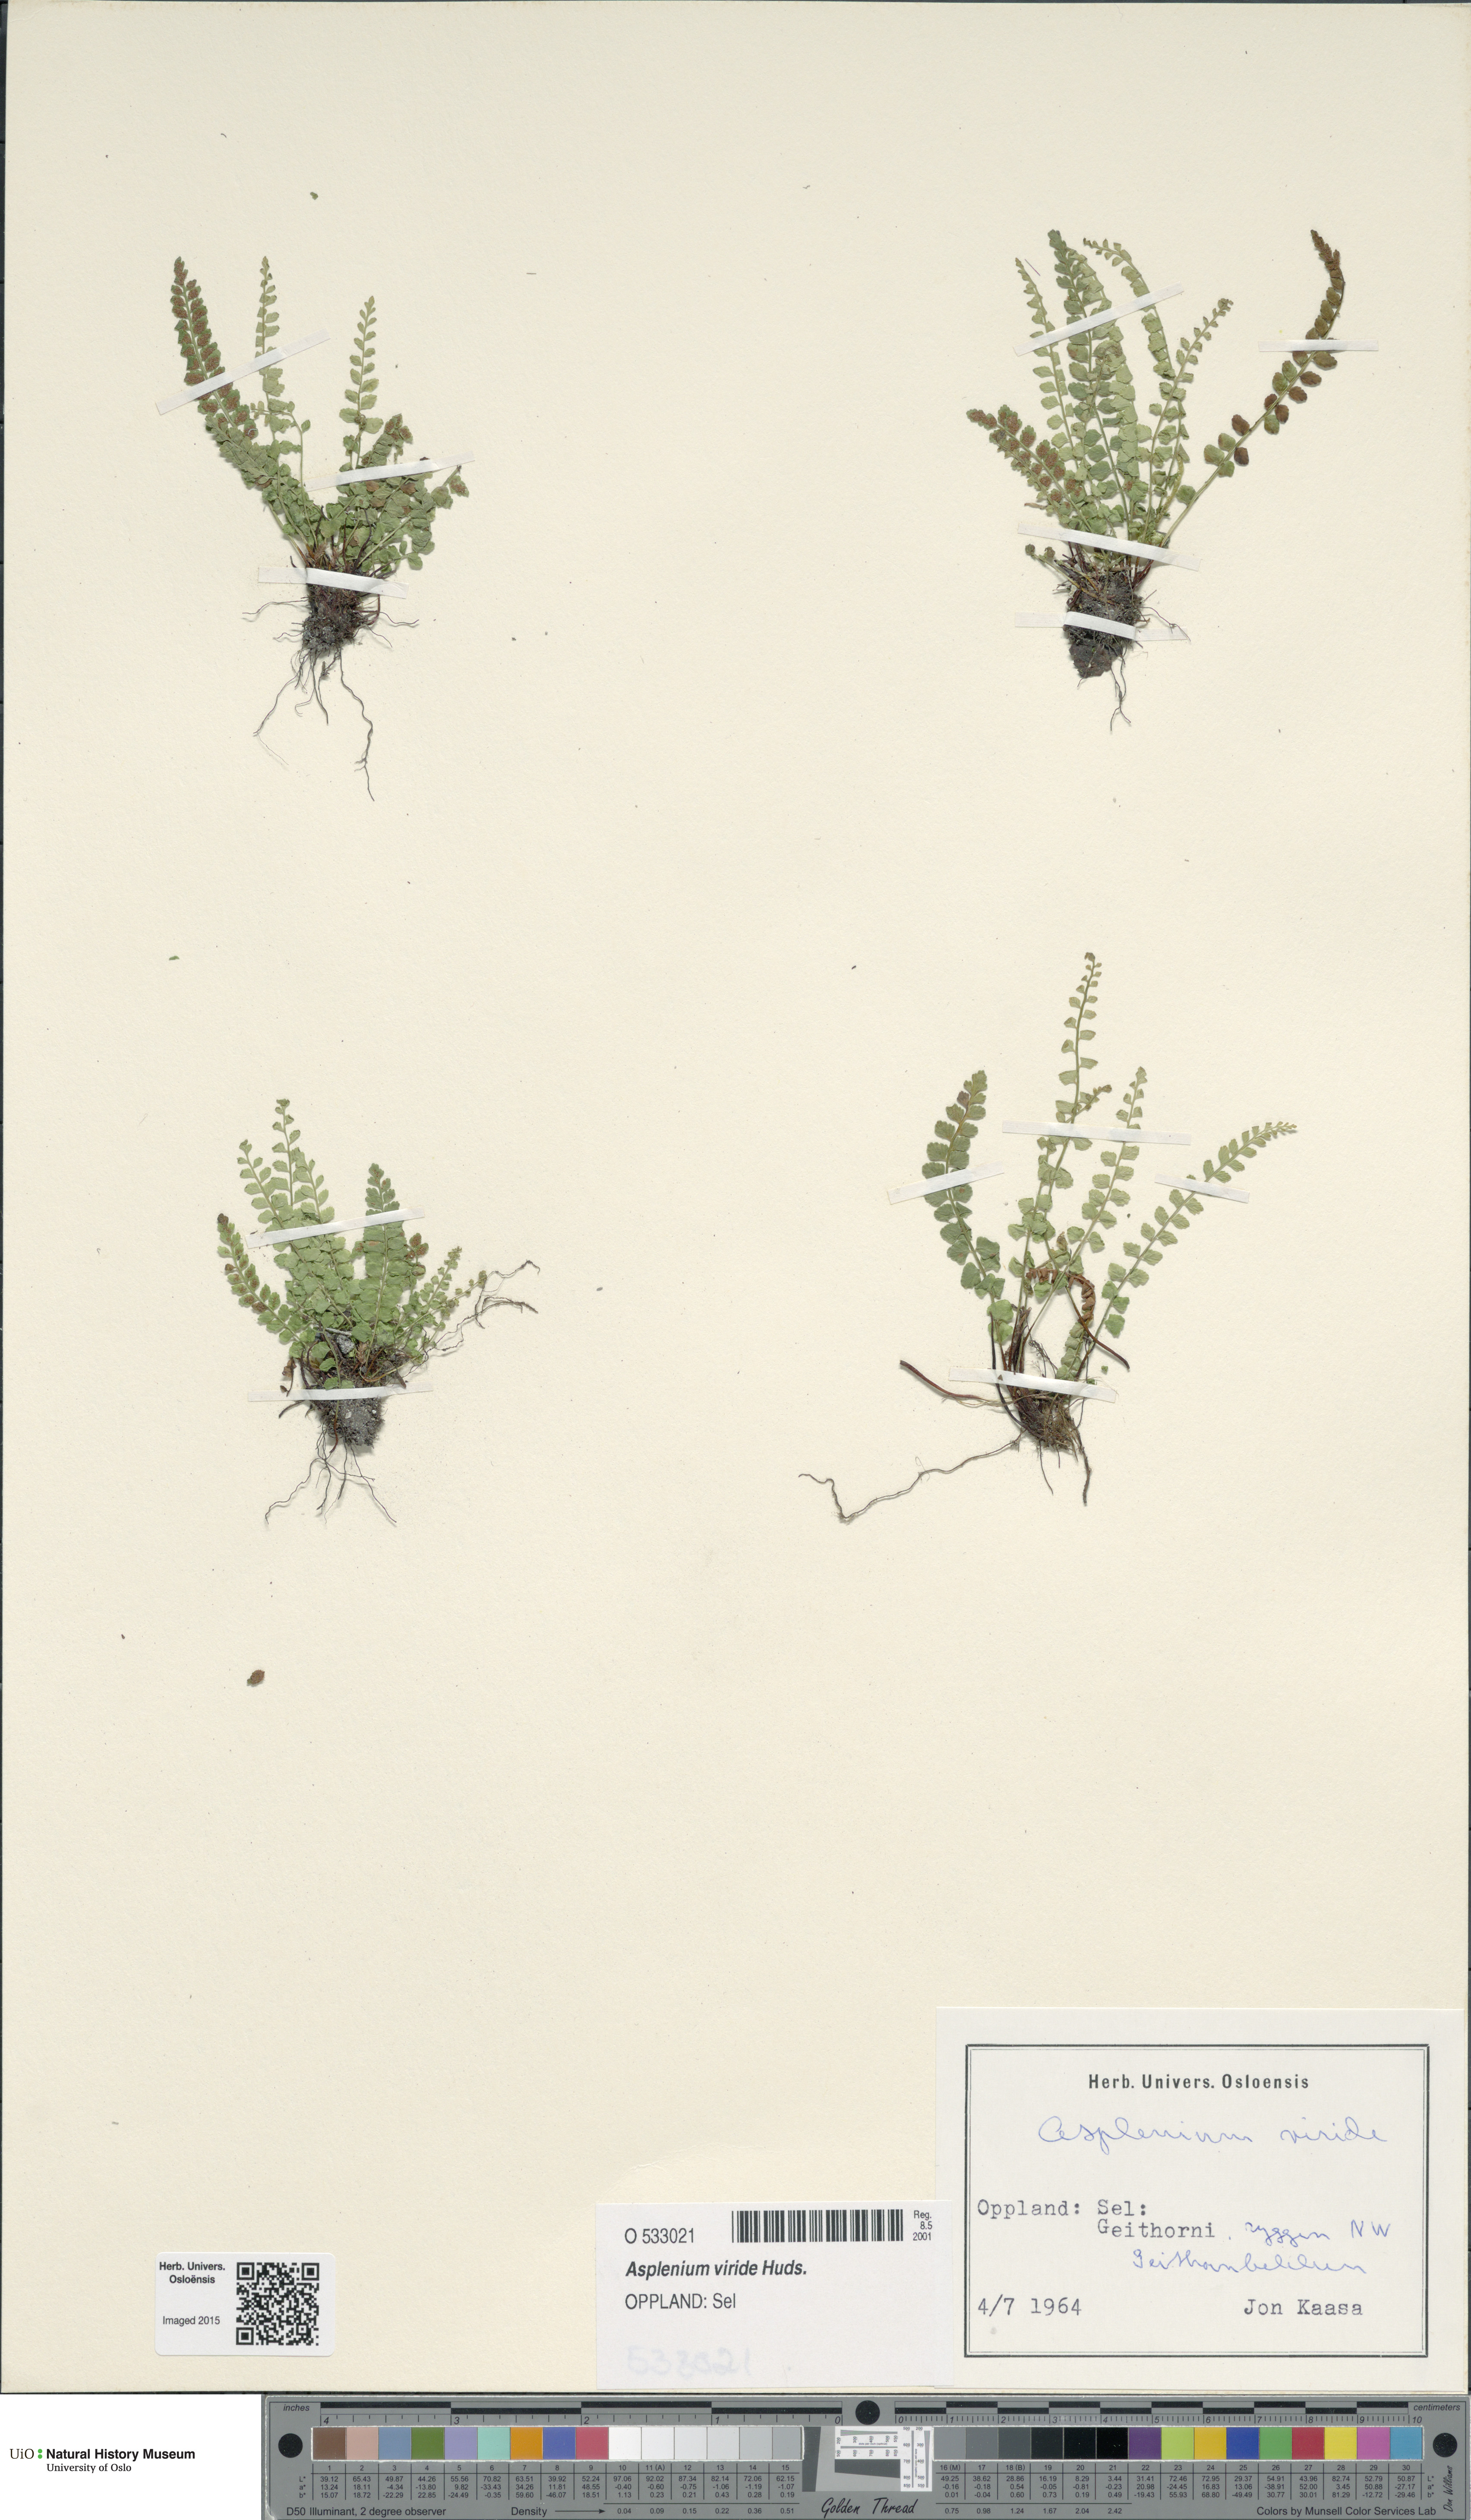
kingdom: Plantae
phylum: Tracheophyta
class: Polypodiopsida
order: Polypodiales
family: Aspleniaceae
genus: Asplenium
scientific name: Asplenium viride
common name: Green spleenwort
